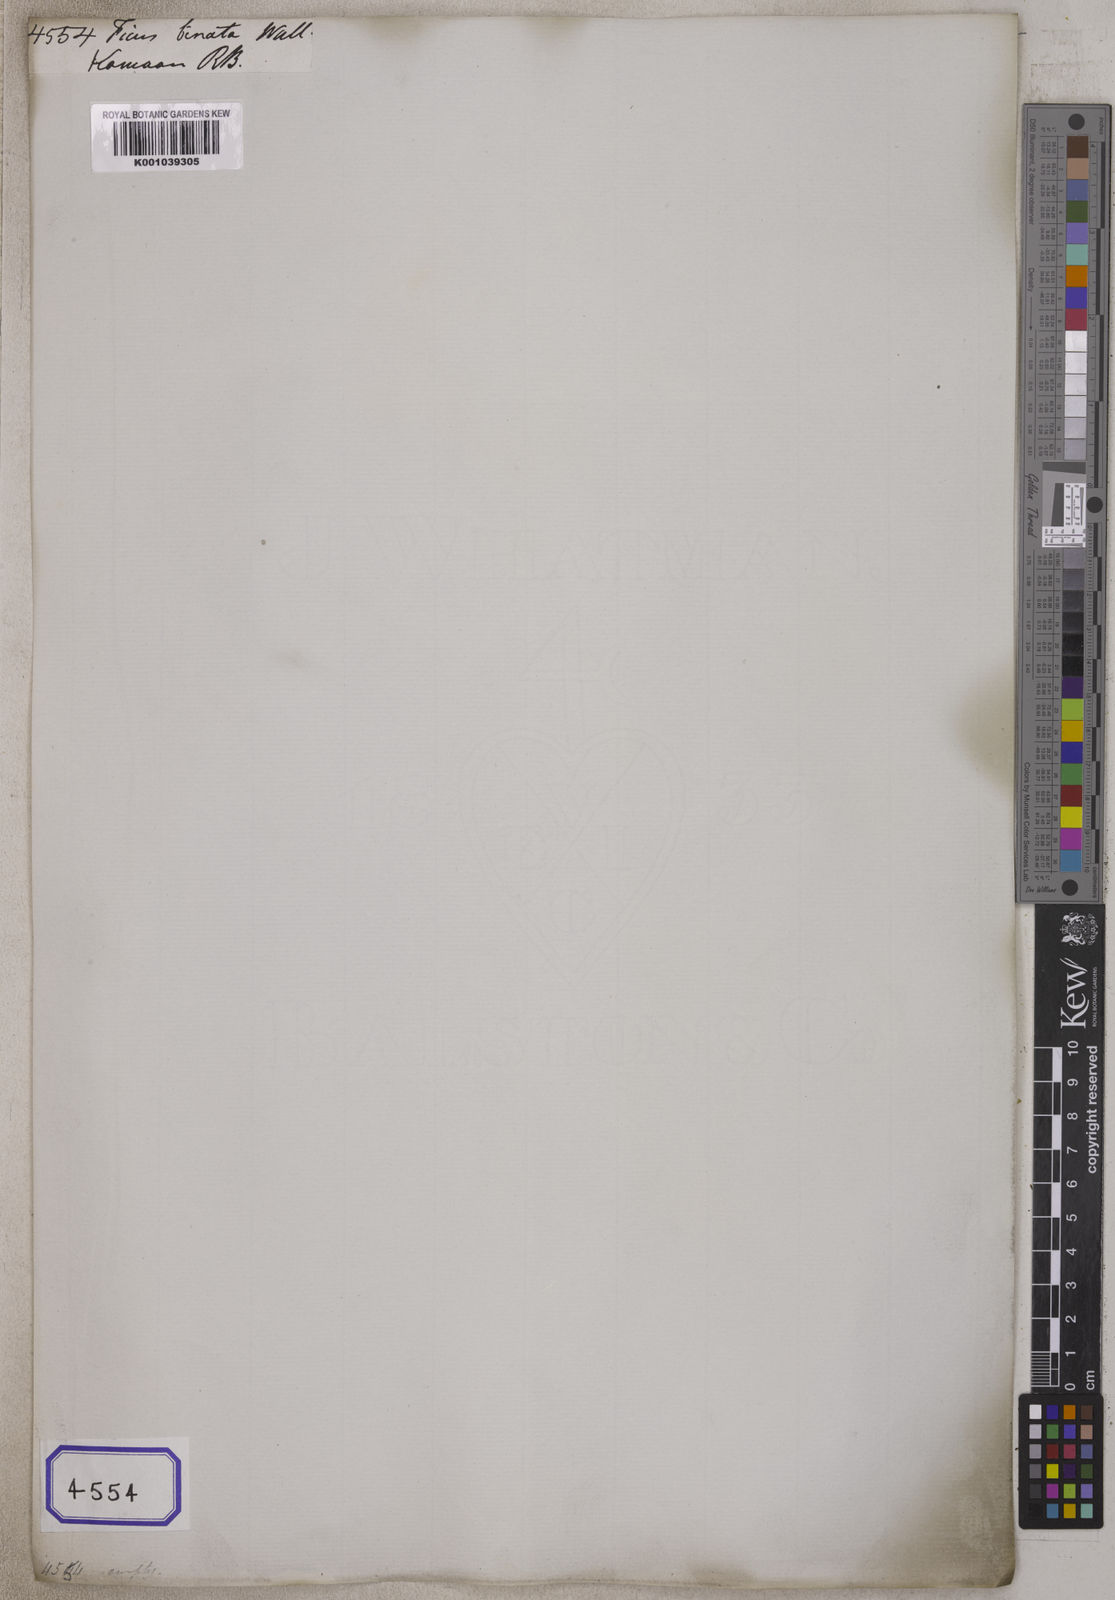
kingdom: Plantae
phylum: Tracheophyta
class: Magnoliopsida
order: Rosales
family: Moraceae
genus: Ficus
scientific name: Ficus
